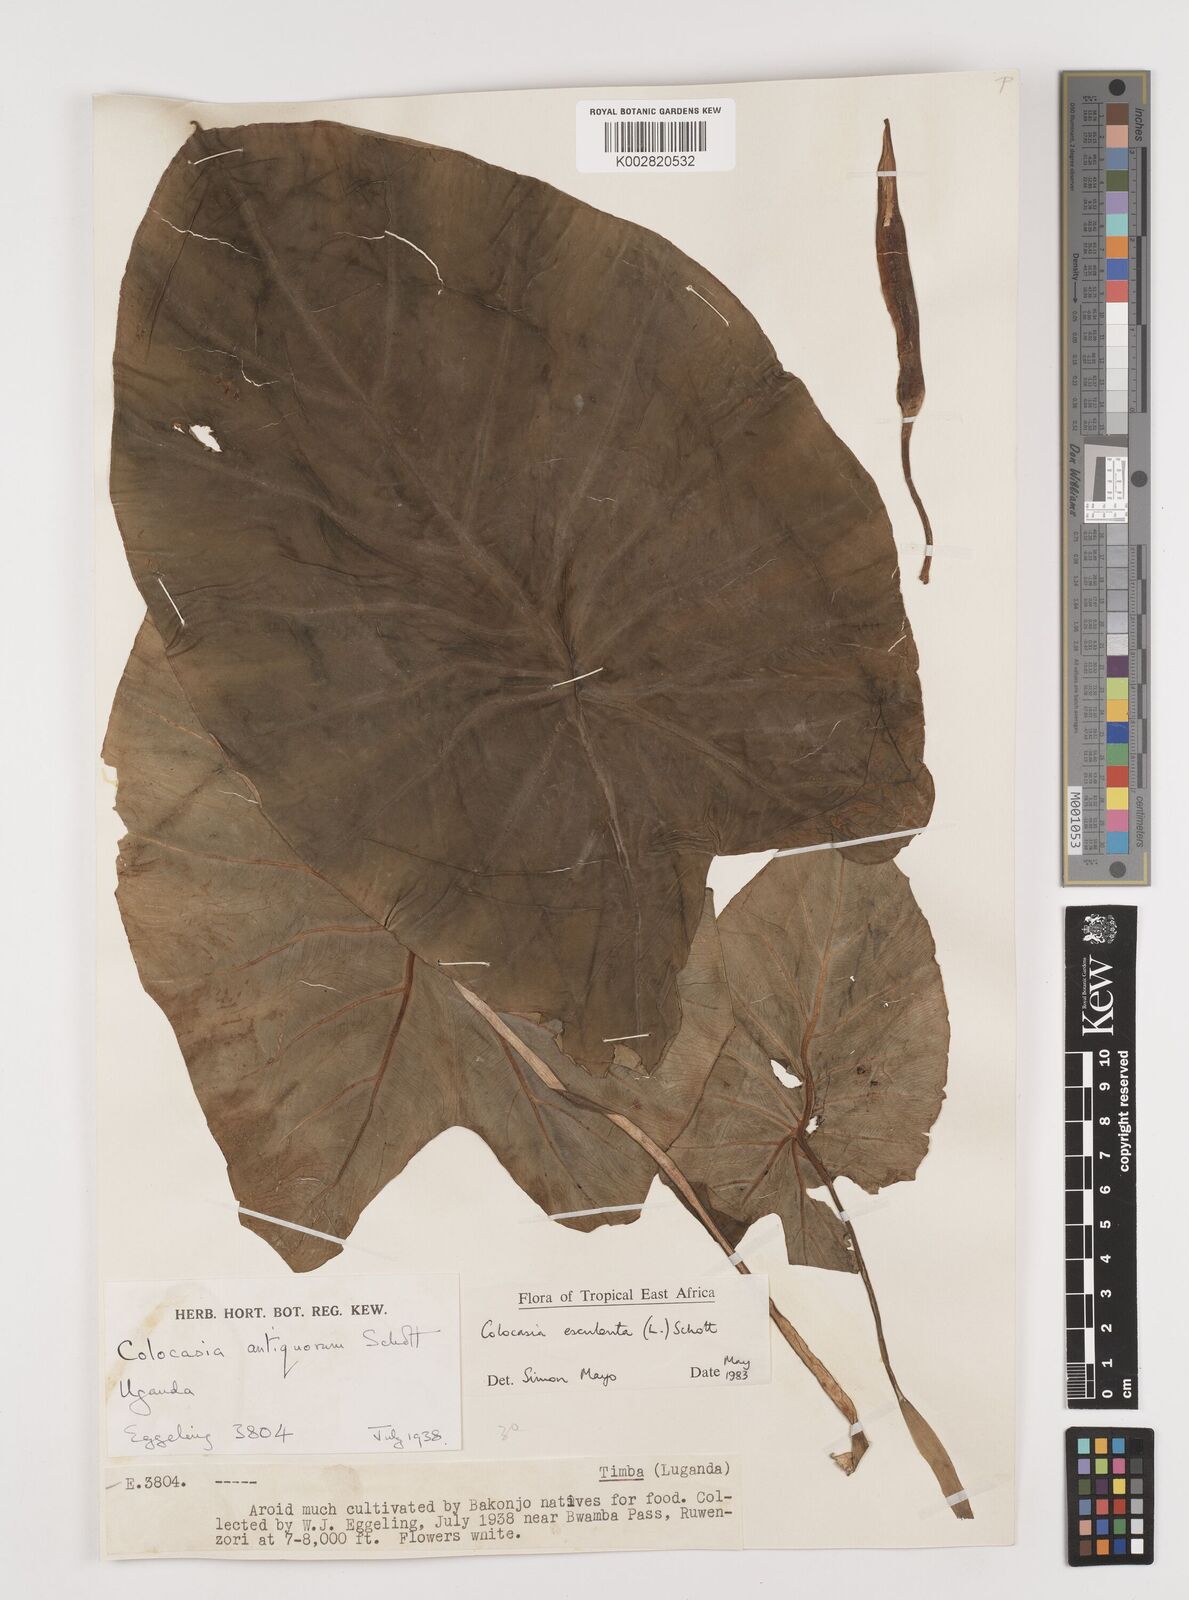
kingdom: Plantae
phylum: Tracheophyta
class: Liliopsida
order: Alismatales
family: Araceae
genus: Colocasia
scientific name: Colocasia esculenta
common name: Taro
